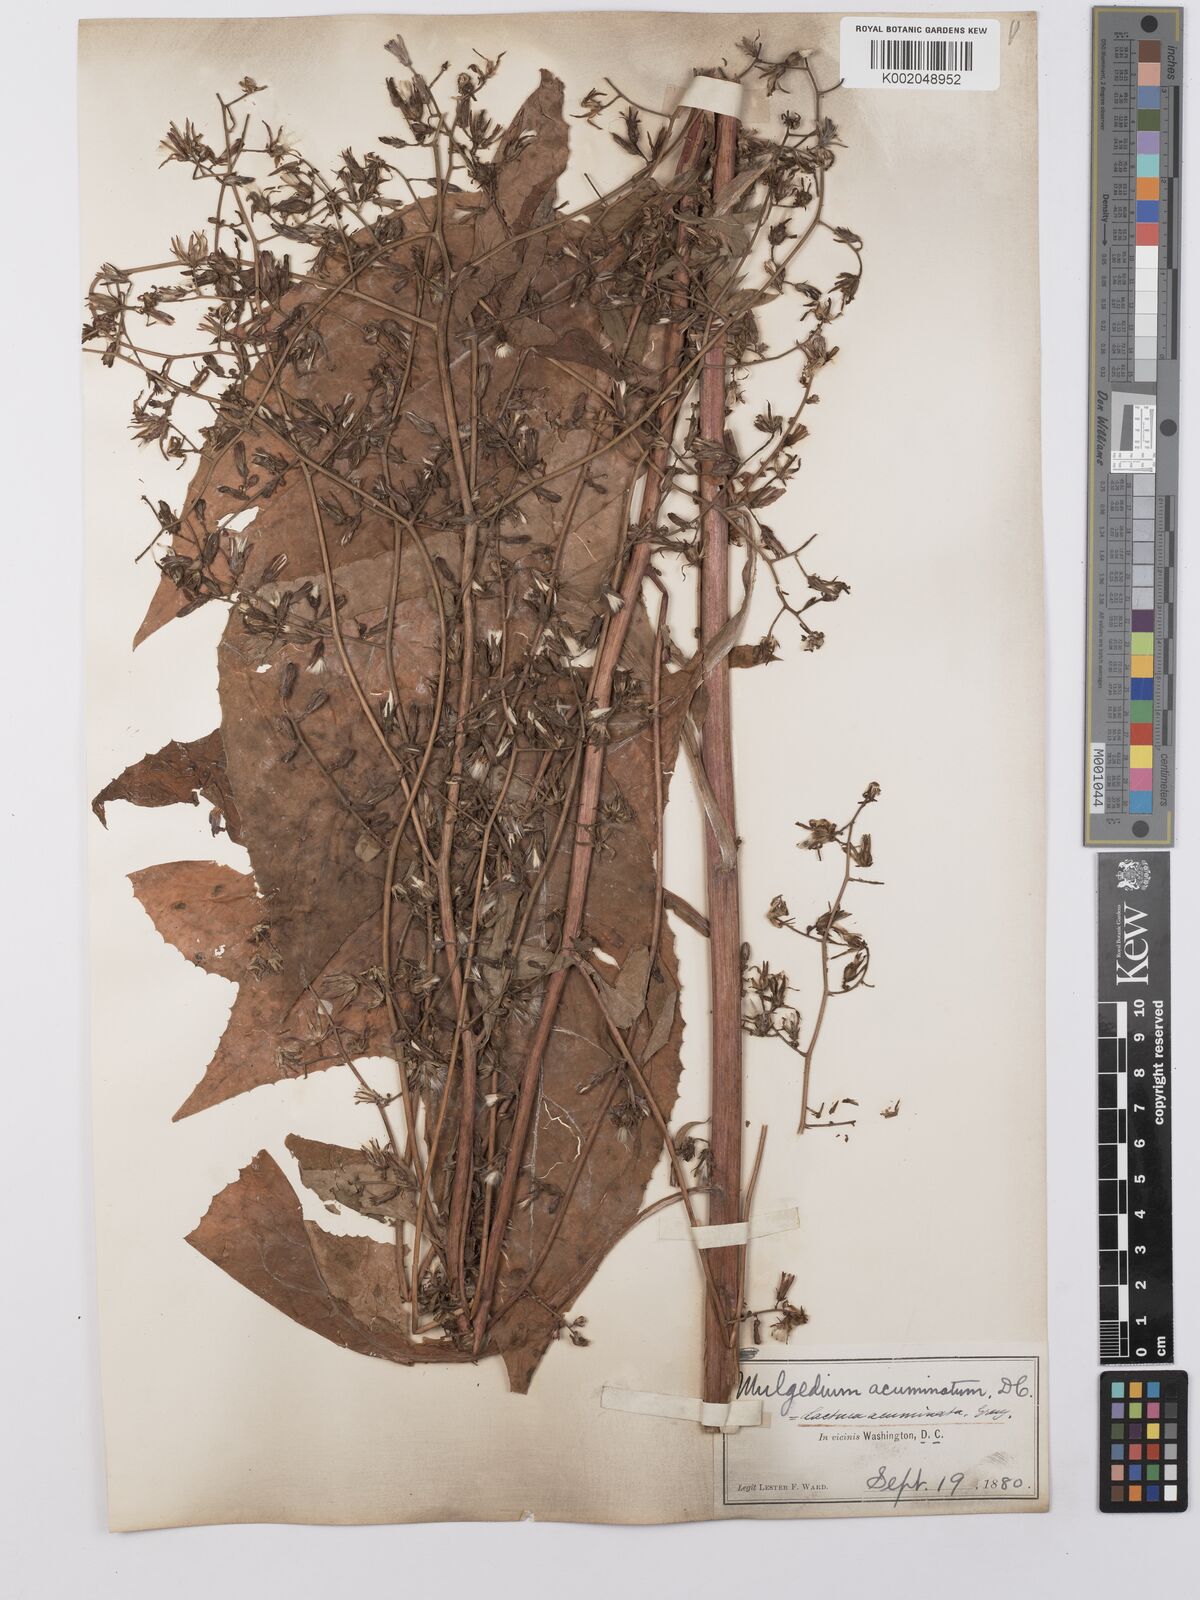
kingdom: Plantae
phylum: Tracheophyta
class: Magnoliopsida
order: Asterales
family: Asteraceae
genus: Lactuca
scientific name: Lactuca floridana
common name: Woodland lettuce
